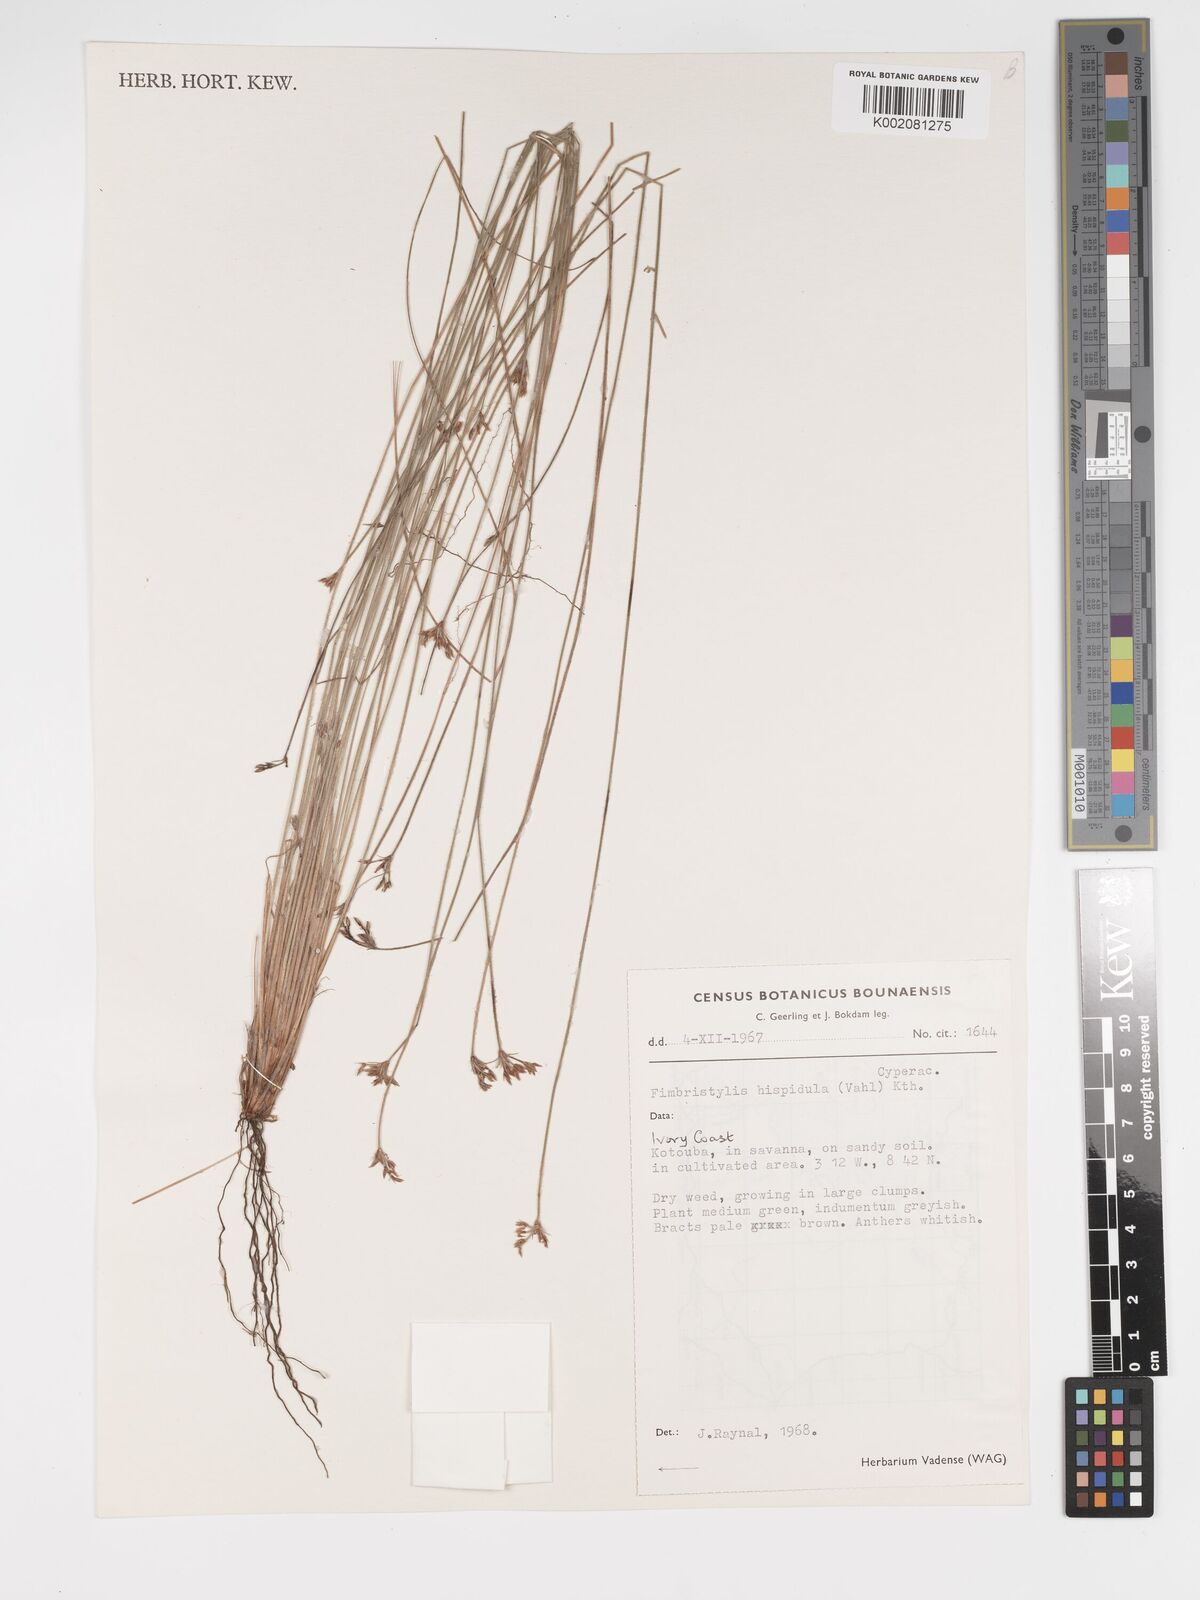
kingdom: Plantae
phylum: Tracheophyta
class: Liliopsida
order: Poales
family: Cyperaceae
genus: Bulbostylis
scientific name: Bulbostylis hispidula
